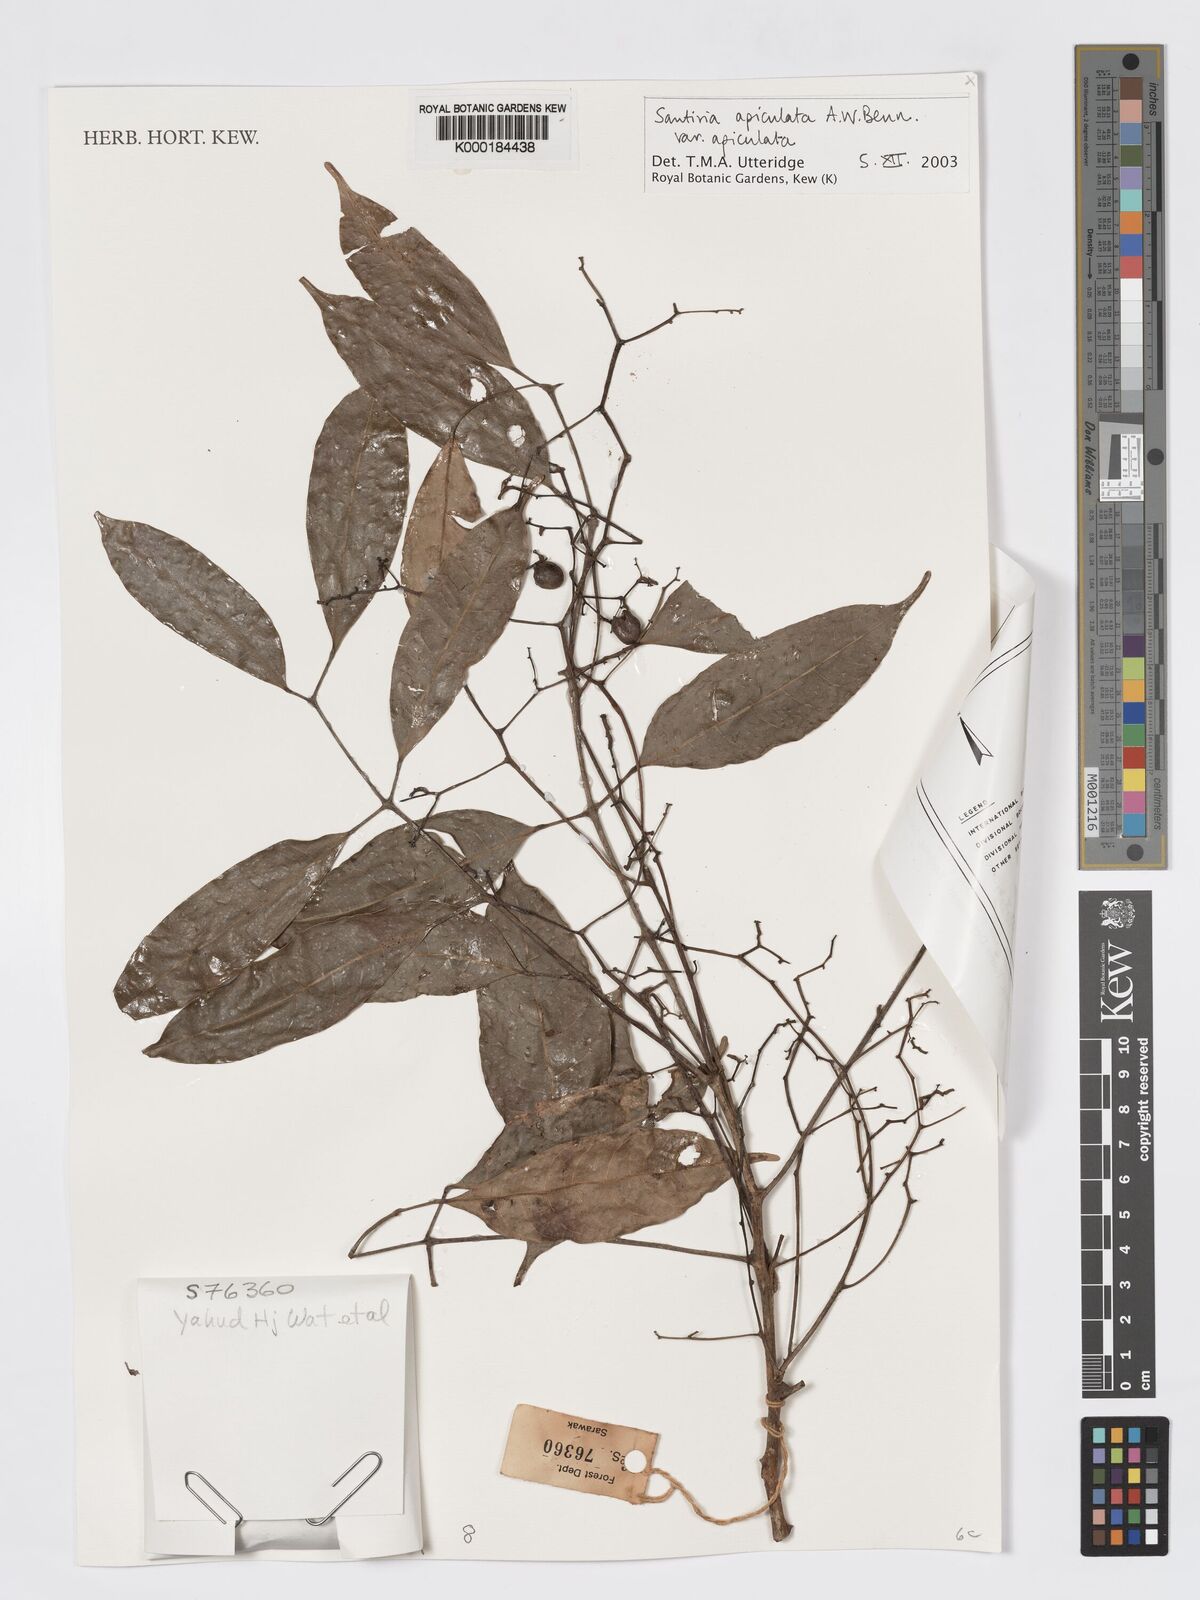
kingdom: Plantae
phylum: Tracheophyta
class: Magnoliopsida
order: Sapindales
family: Burseraceae
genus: Santiria
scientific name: Santiria apiculata
